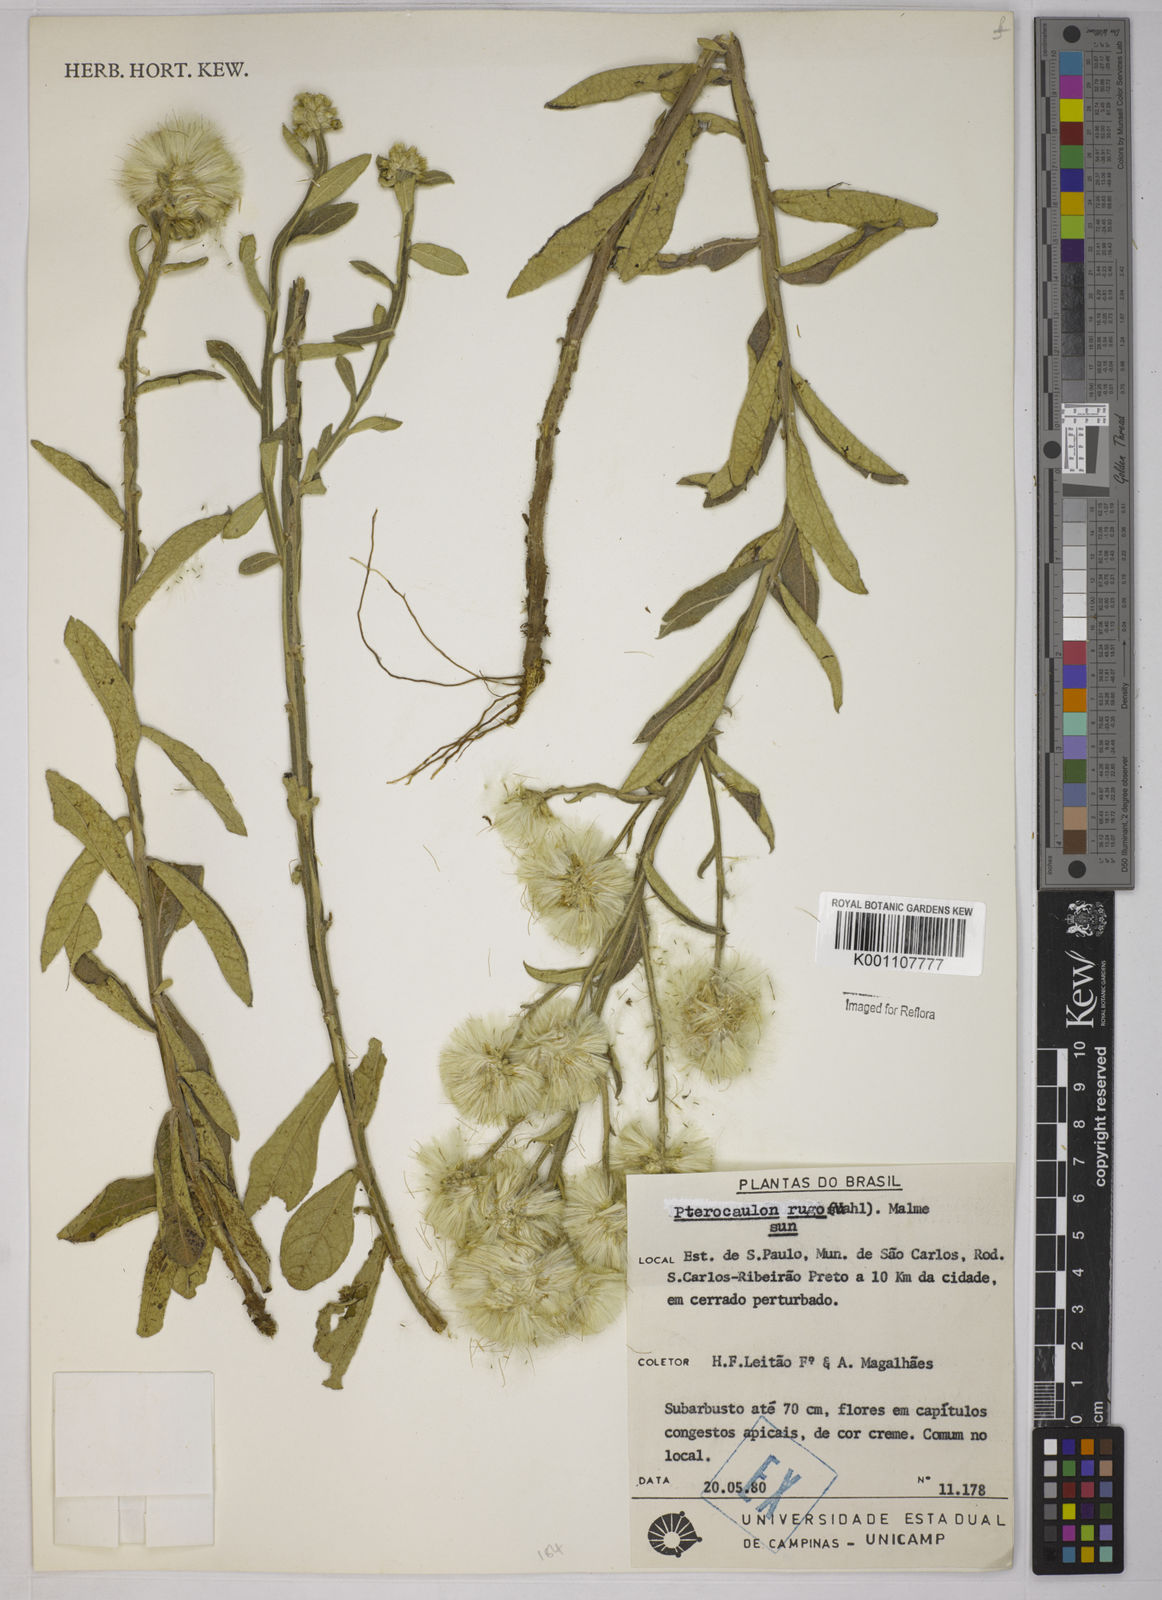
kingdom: Plantae
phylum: Tracheophyta
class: Magnoliopsida
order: Asterales
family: Asteraceae
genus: Pterocaulon
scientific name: Pterocaulon angustifolium
